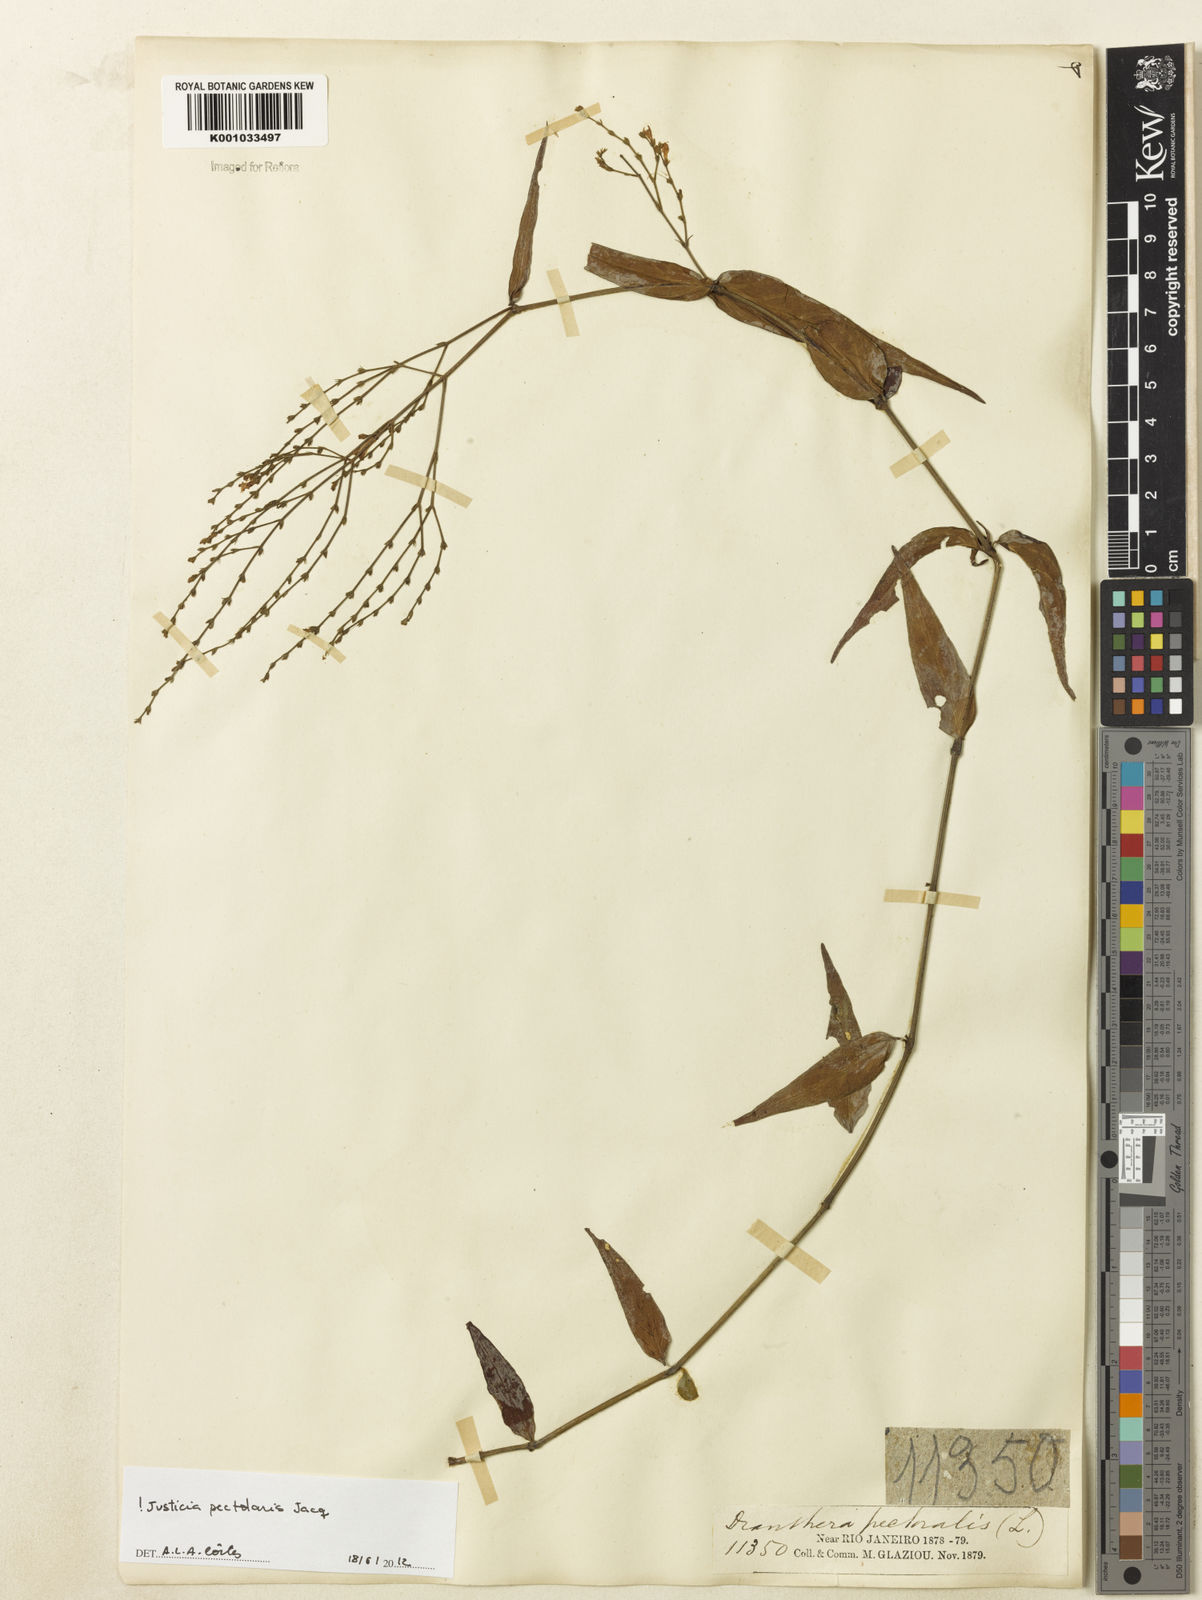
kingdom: Plantae
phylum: Tracheophyta
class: Magnoliopsida
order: Lamiales
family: Acanthaceae
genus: Dianthera
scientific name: Dianthera pectoralis
